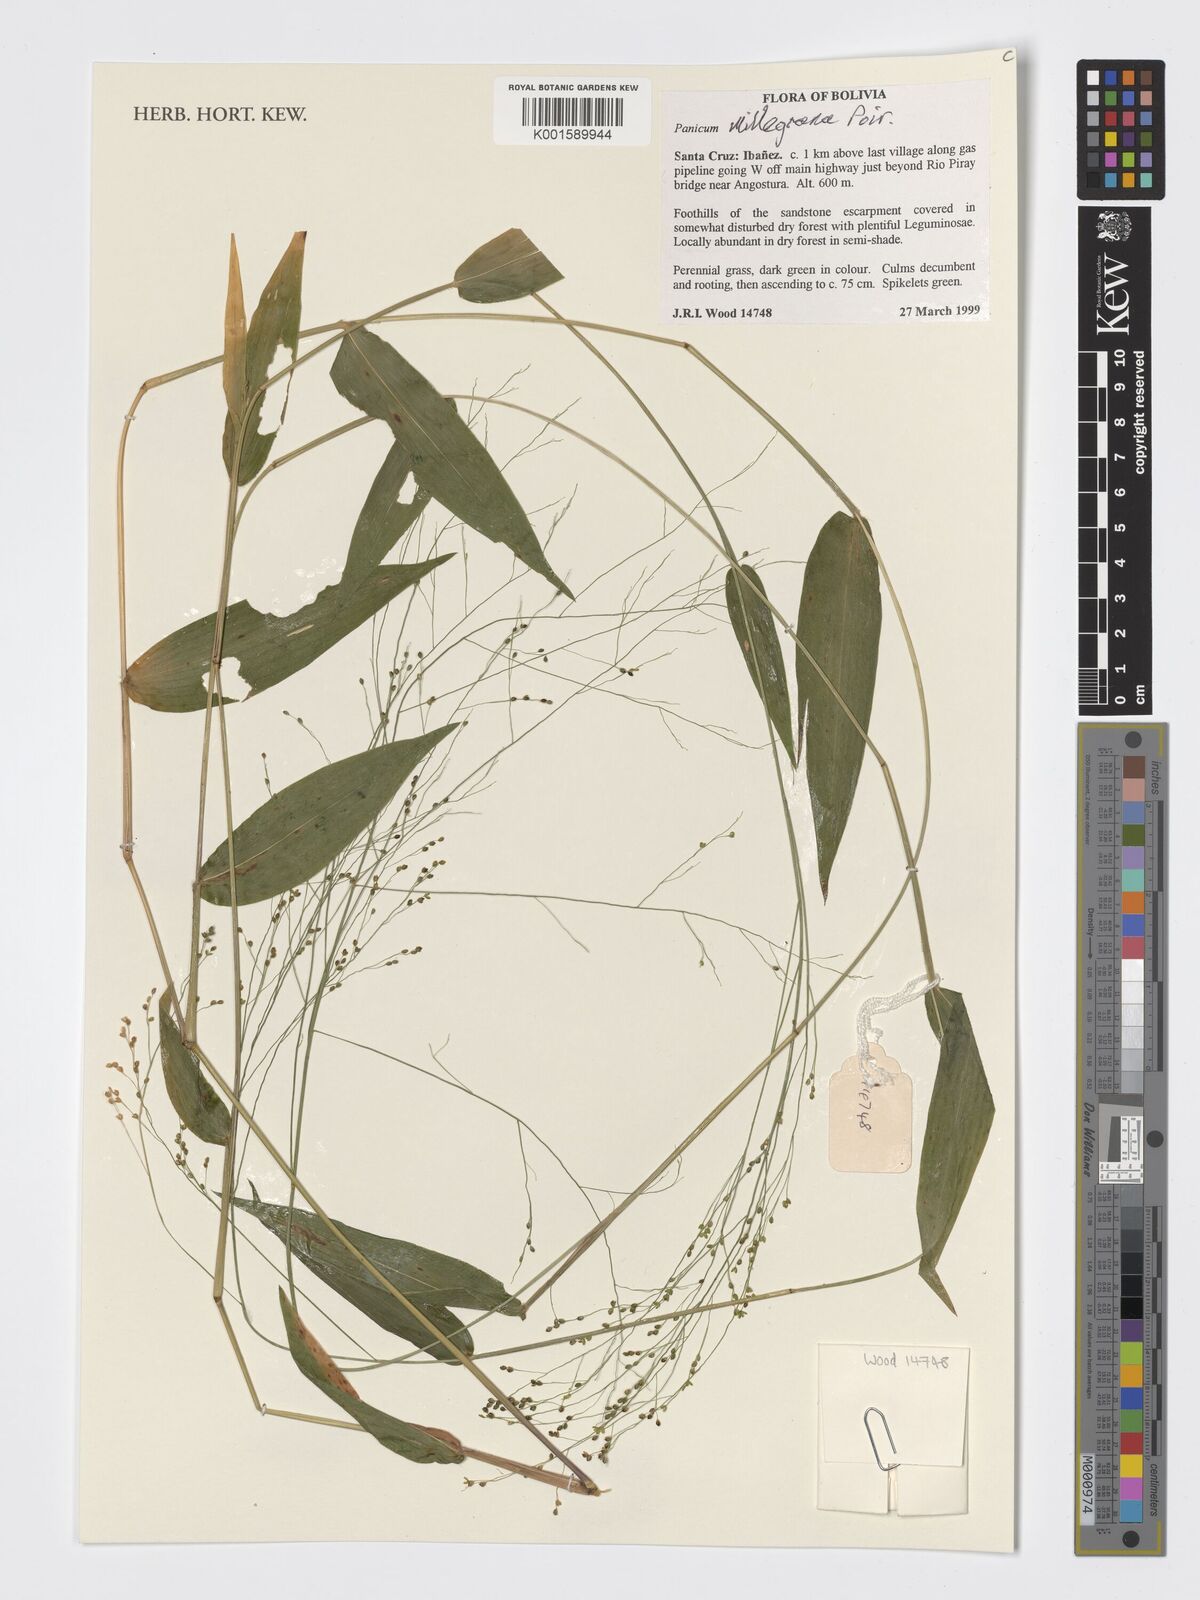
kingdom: Plantae
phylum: Tracheophyta
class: Liliopsida
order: Poales
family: Poaceae
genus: Panicum
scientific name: Panicum millegrana
